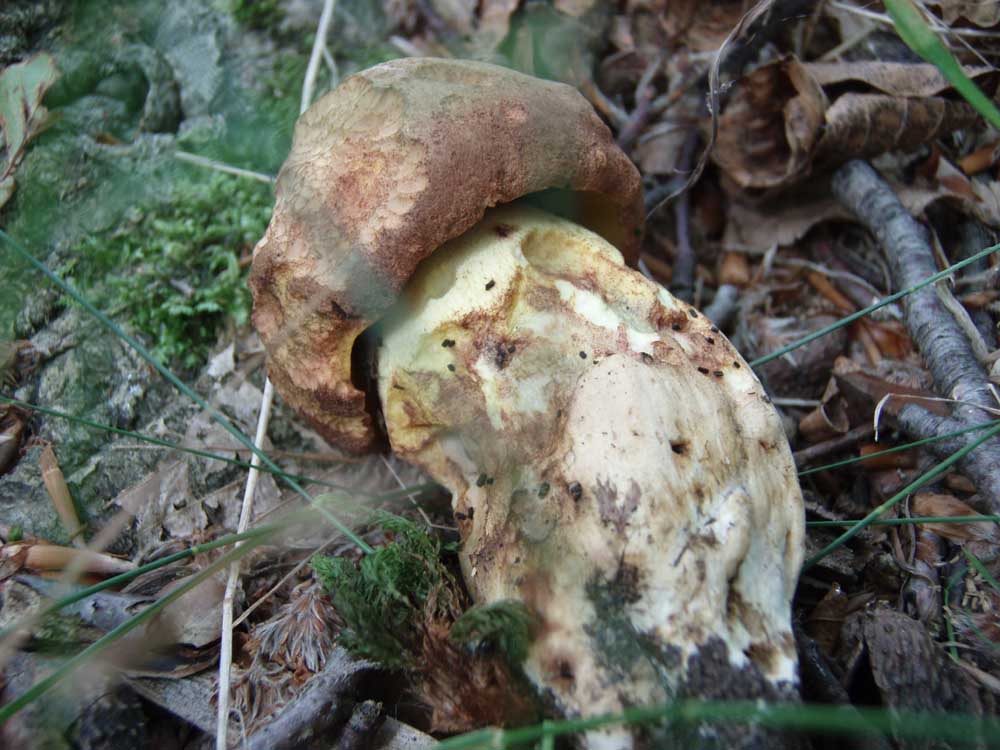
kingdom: Fungi
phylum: Basidiomycota
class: Agaricomycetes
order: Boletales
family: Boletaceae
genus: Butyriboletus
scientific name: Butyriboletus appendiculatus
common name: tenstokket rørhat
